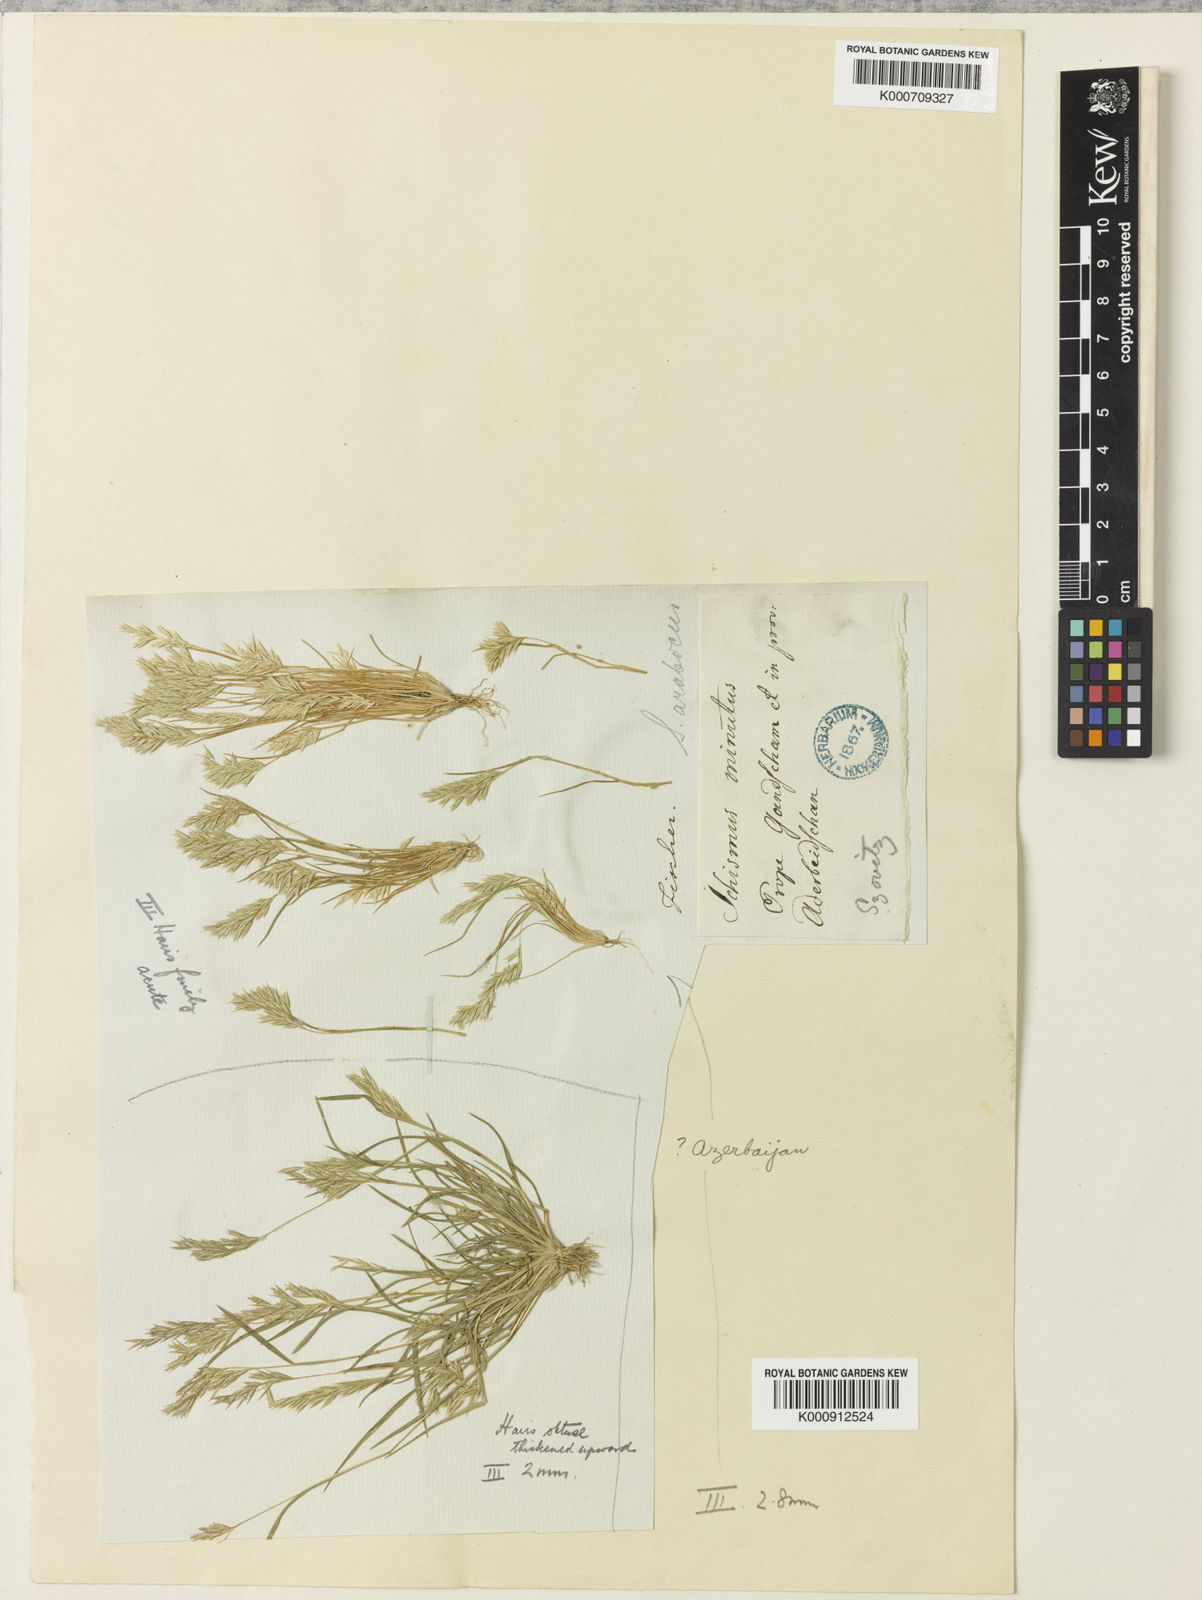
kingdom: Plantae
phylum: Tracheophyta
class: Liliopsida
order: Poales
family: Poaceae
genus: Schismus
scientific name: Schismus arabicus
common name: Arabian schismus
